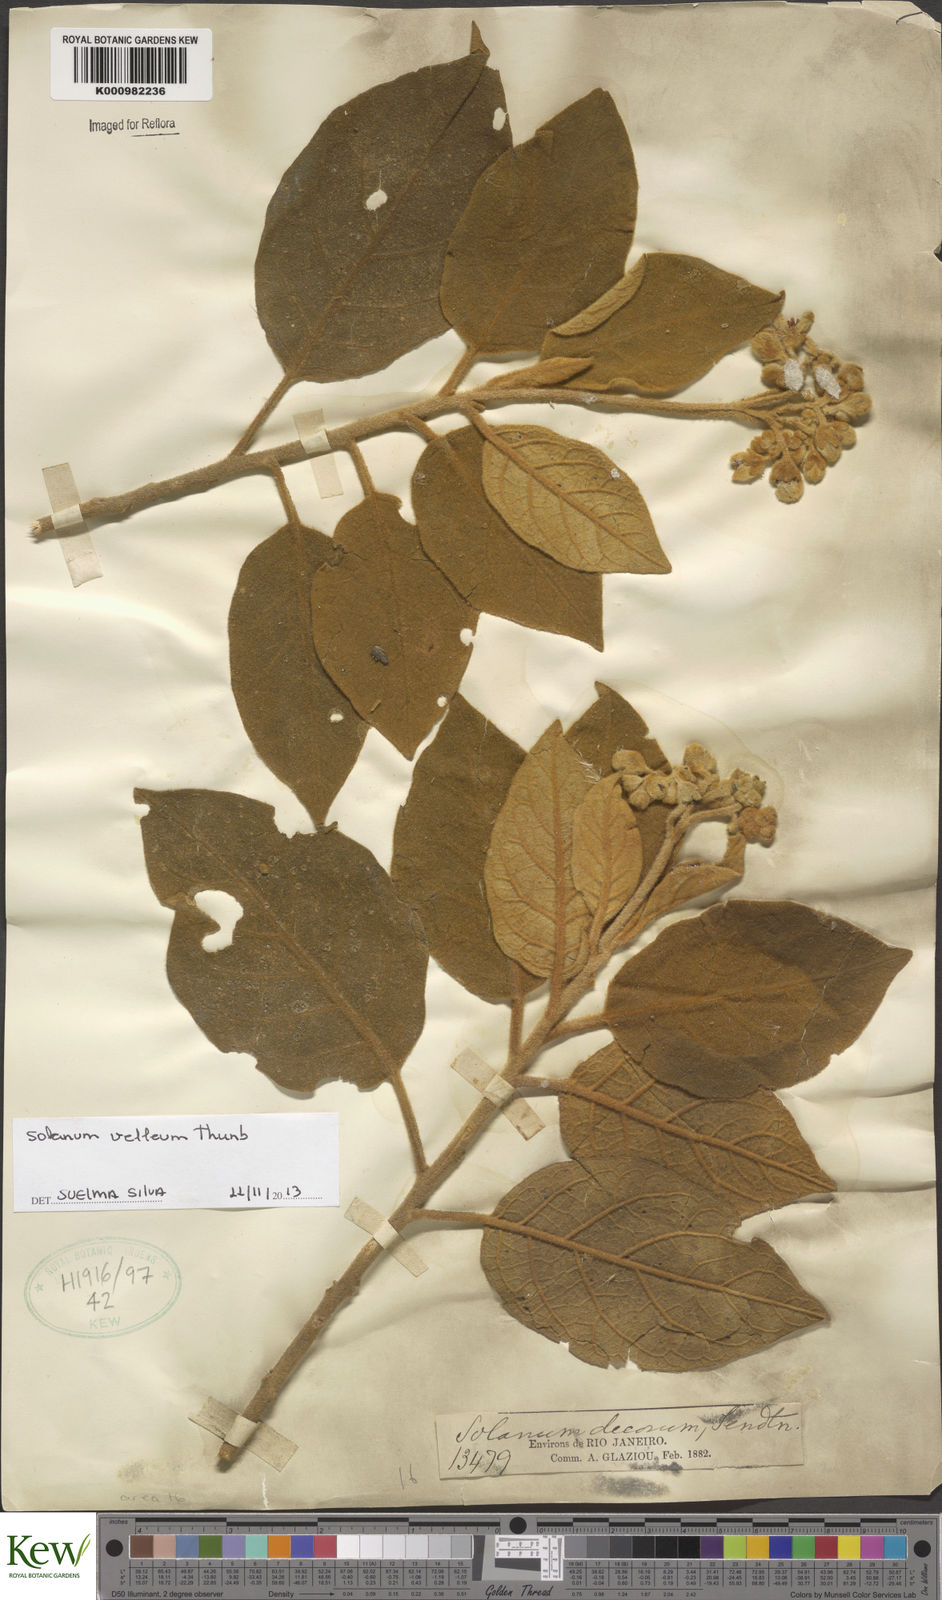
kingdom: Plantae
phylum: Tracheophyta
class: Magnoliopsida
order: Solanales
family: Solanaceae
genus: Solanum
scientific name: Solanum velleum
